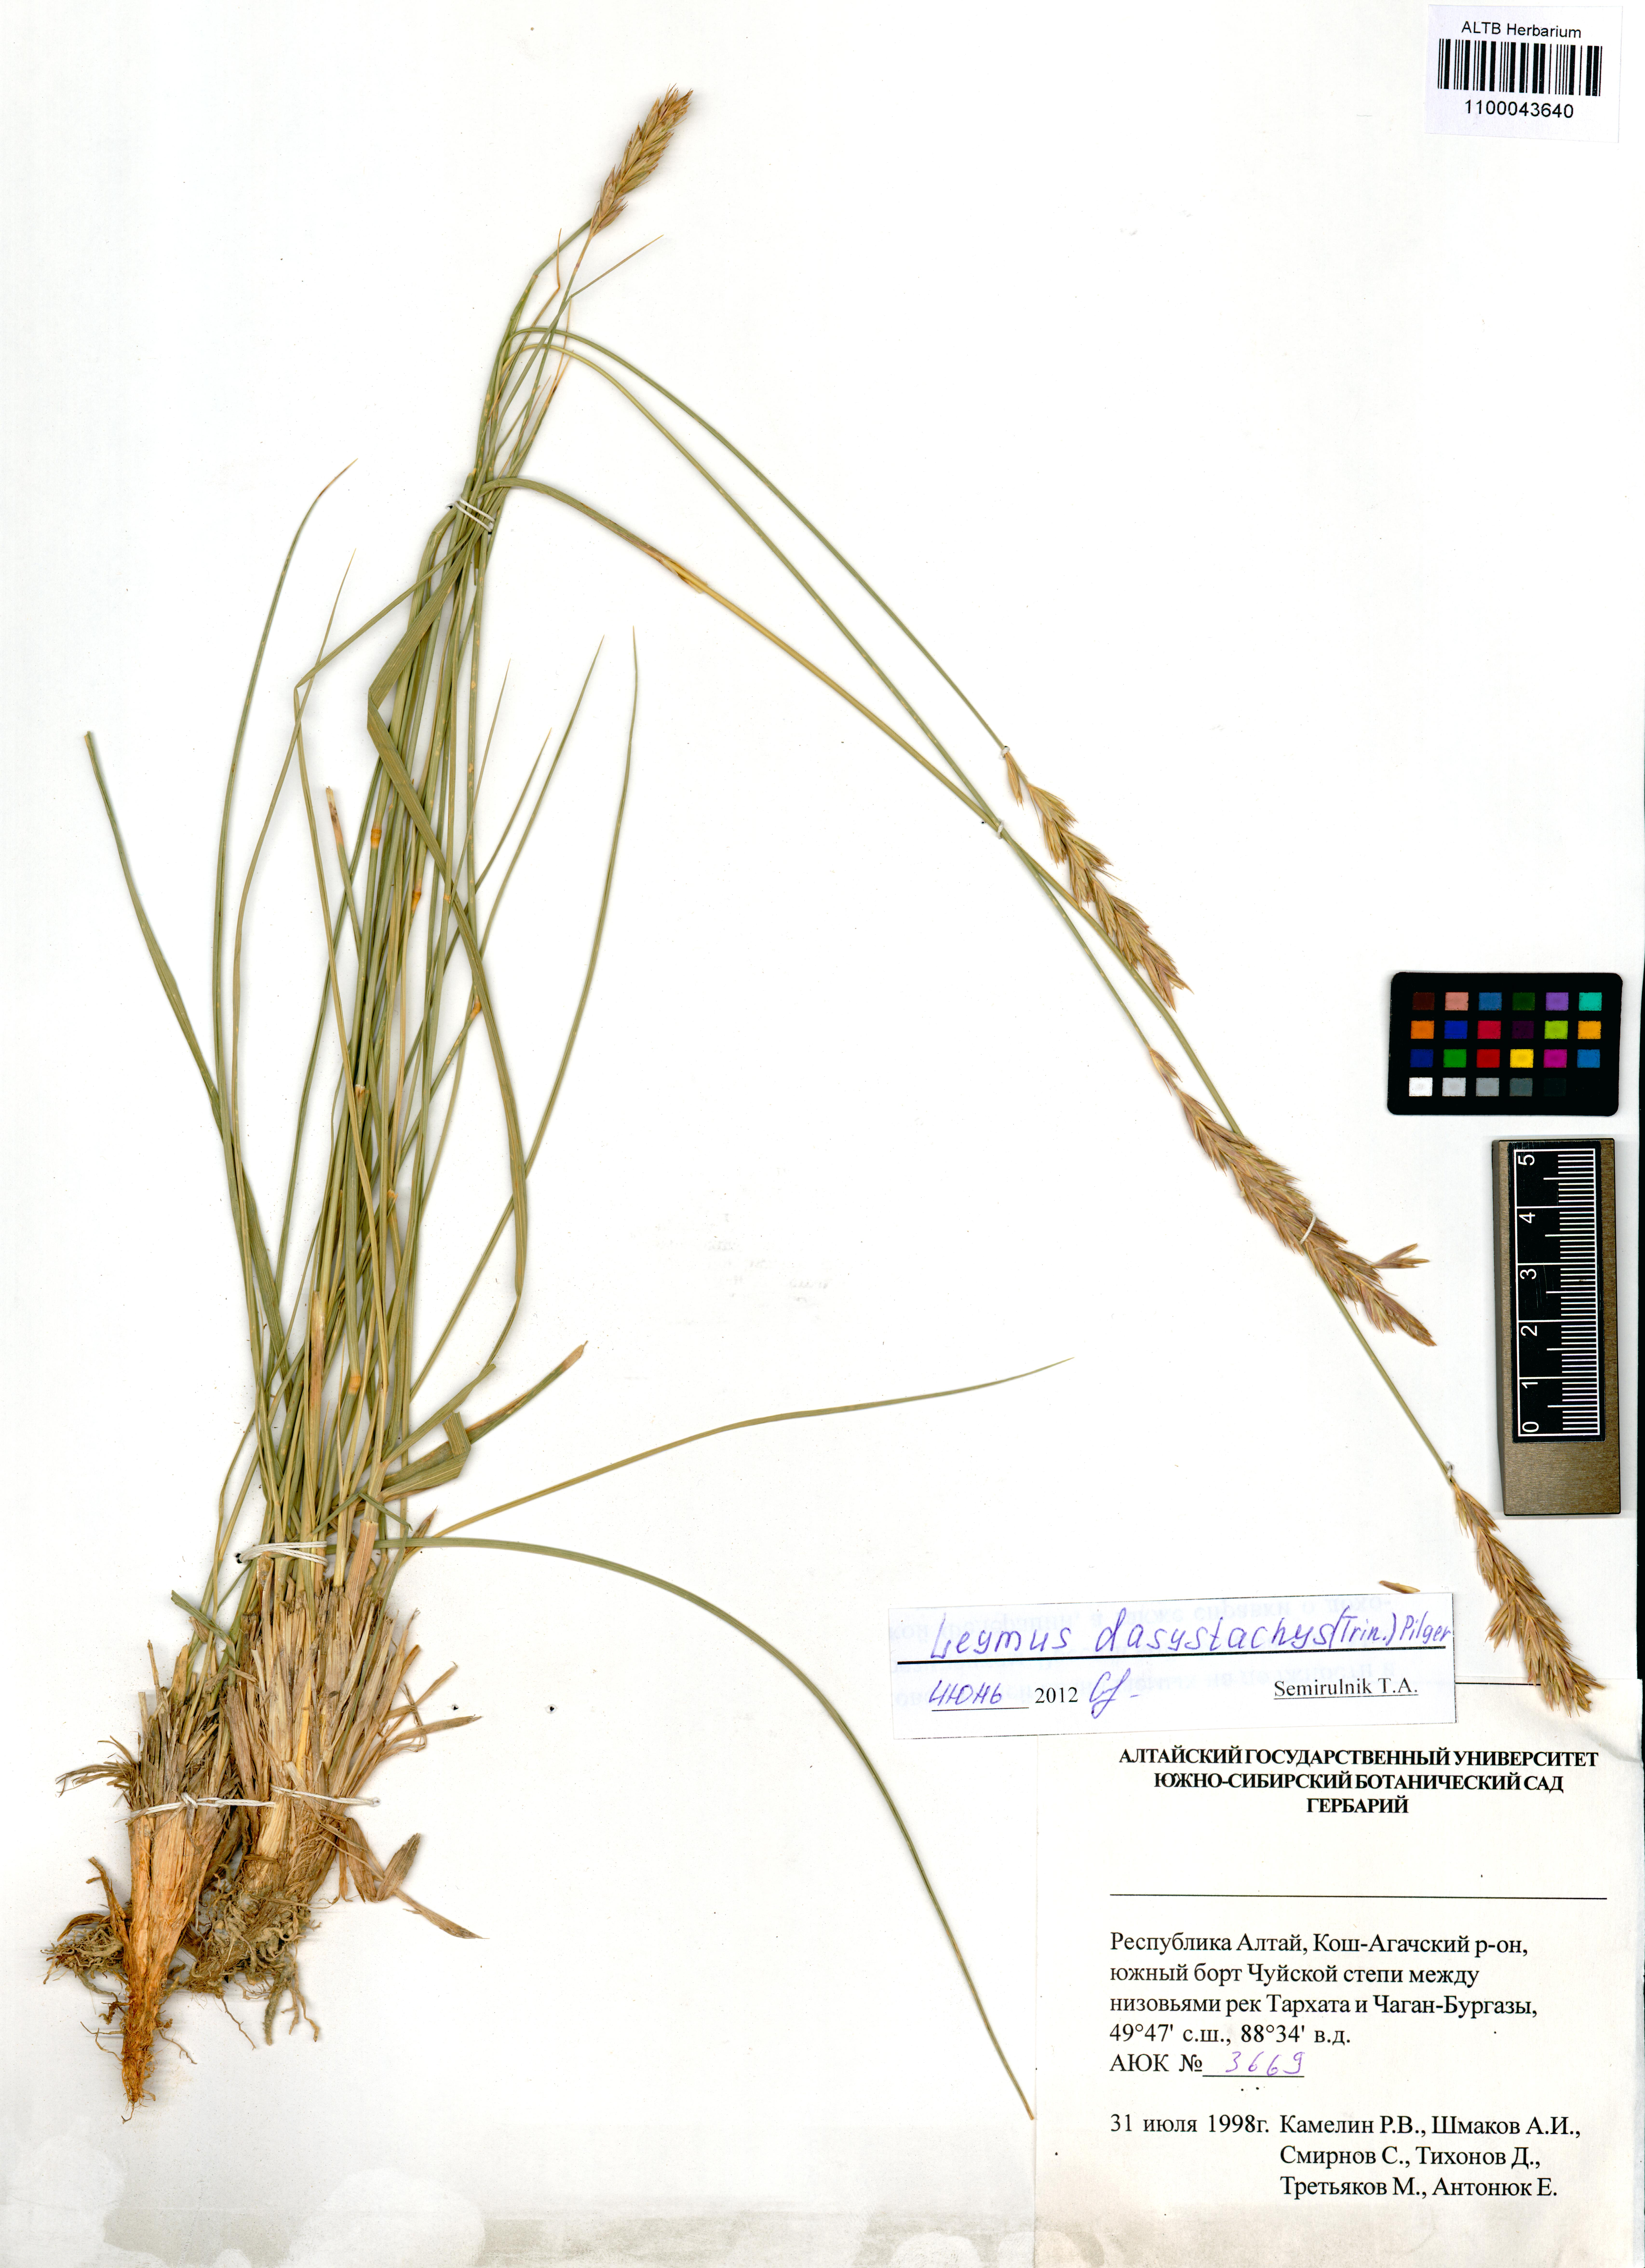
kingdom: Plantae
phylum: Tracheophyta
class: Liliopsida
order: Poales
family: Poaceae
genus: Leymus
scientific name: Leymus secalinus
